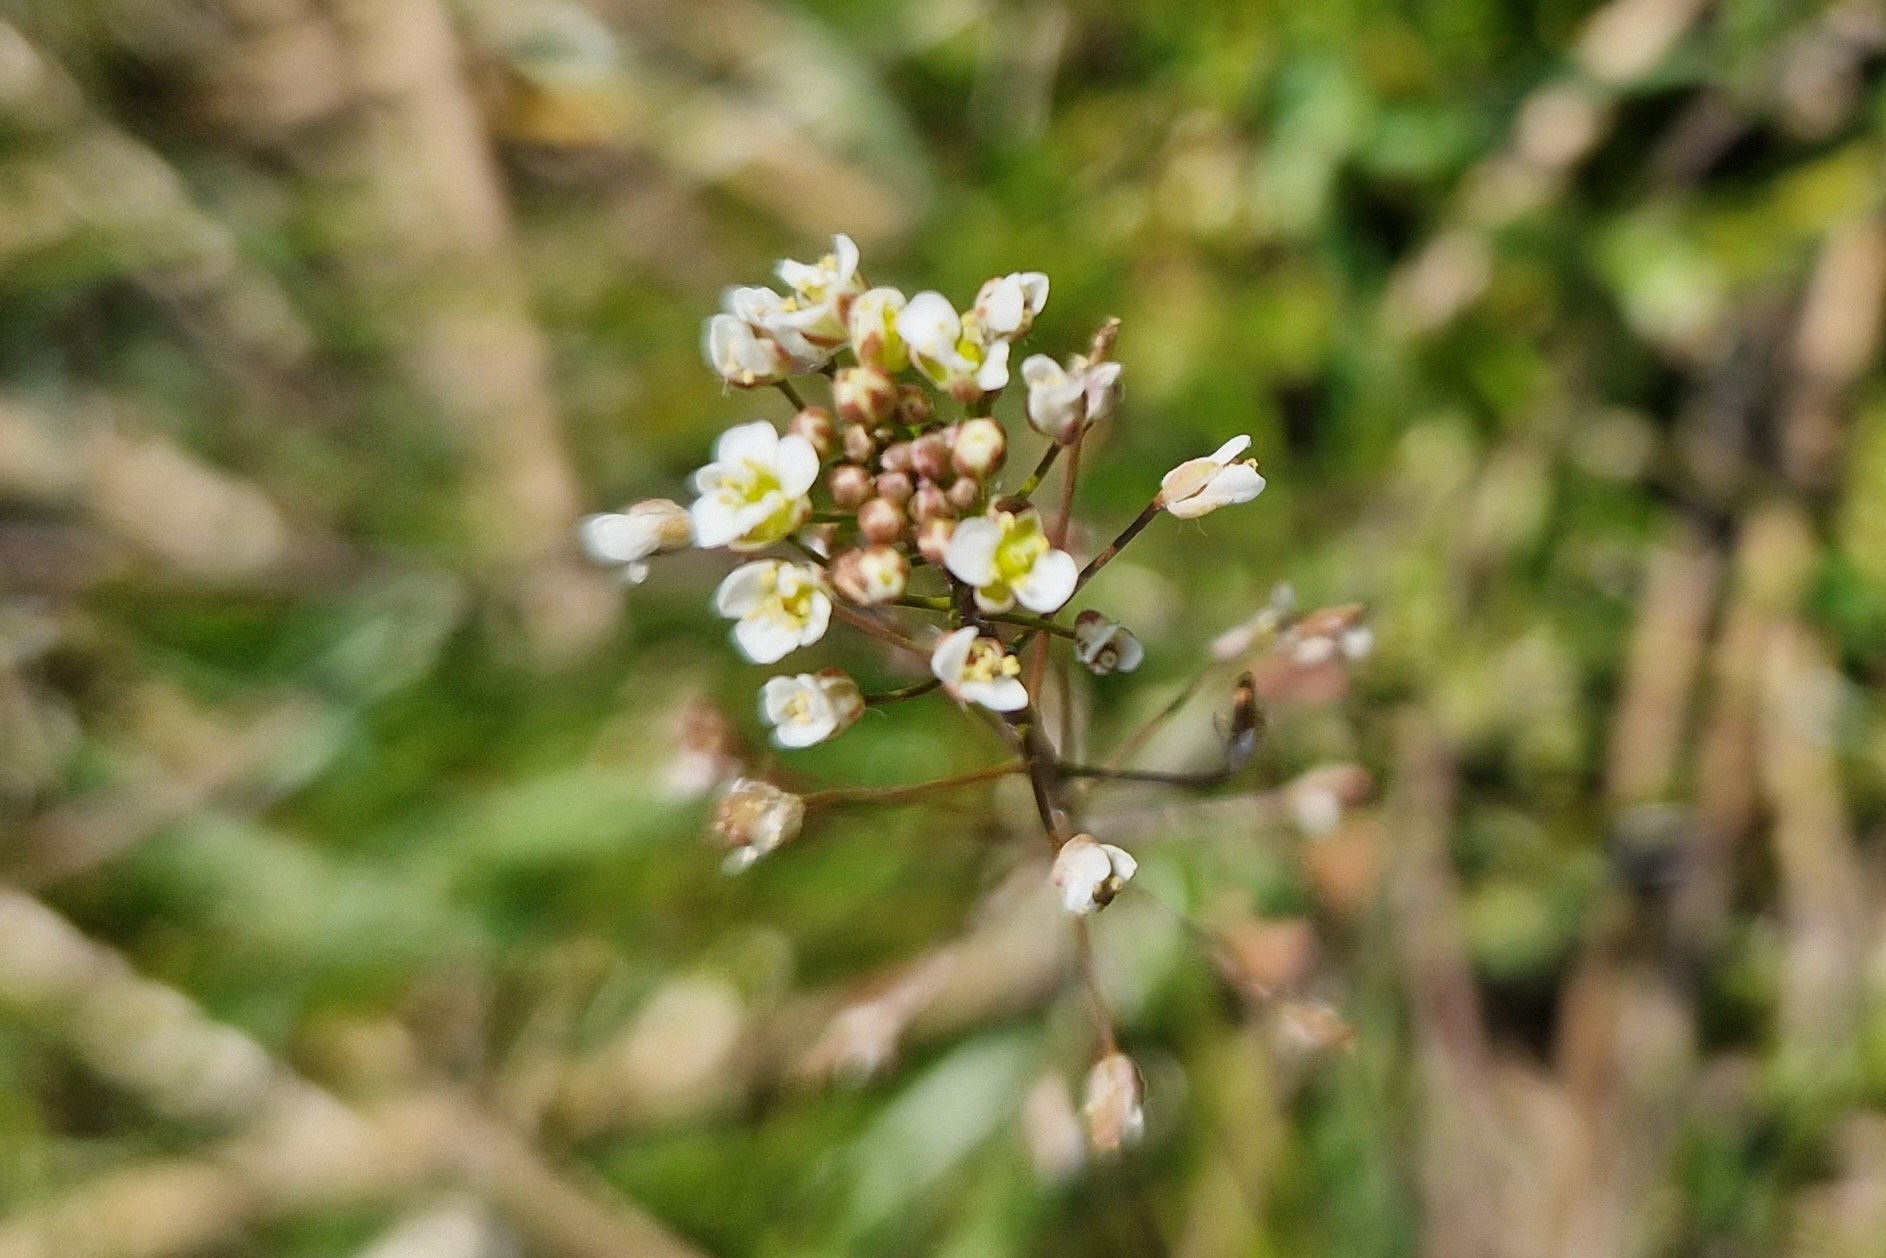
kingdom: Plantae
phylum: Tracheophyta
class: Magnoliopsida
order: Brassicales
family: Brassicaceae
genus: Capsella
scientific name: Capsella bursa-pastoris
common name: Hyrdetaske
